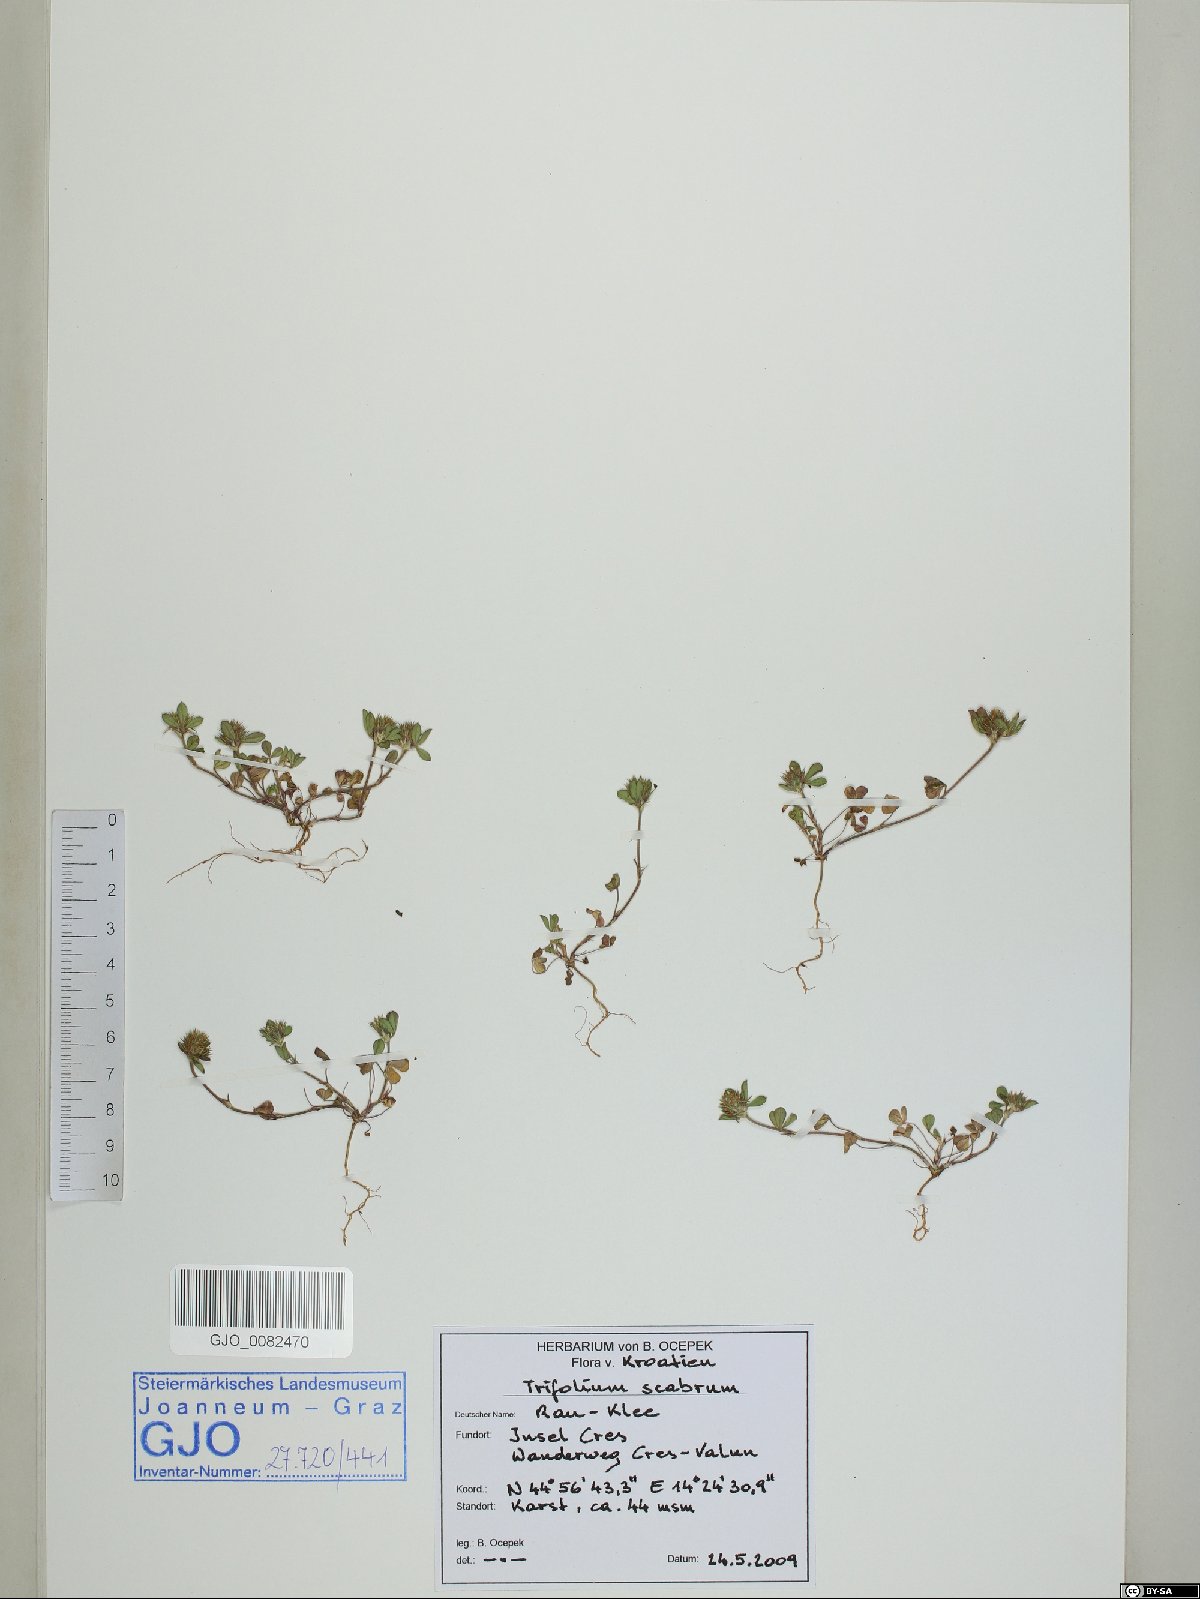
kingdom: Plantae
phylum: Tracheophyta
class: Magnoliopsida
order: Fabales
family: Fabaceae
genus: Trifolium
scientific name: Trifolium scabrum
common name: Rough clover
